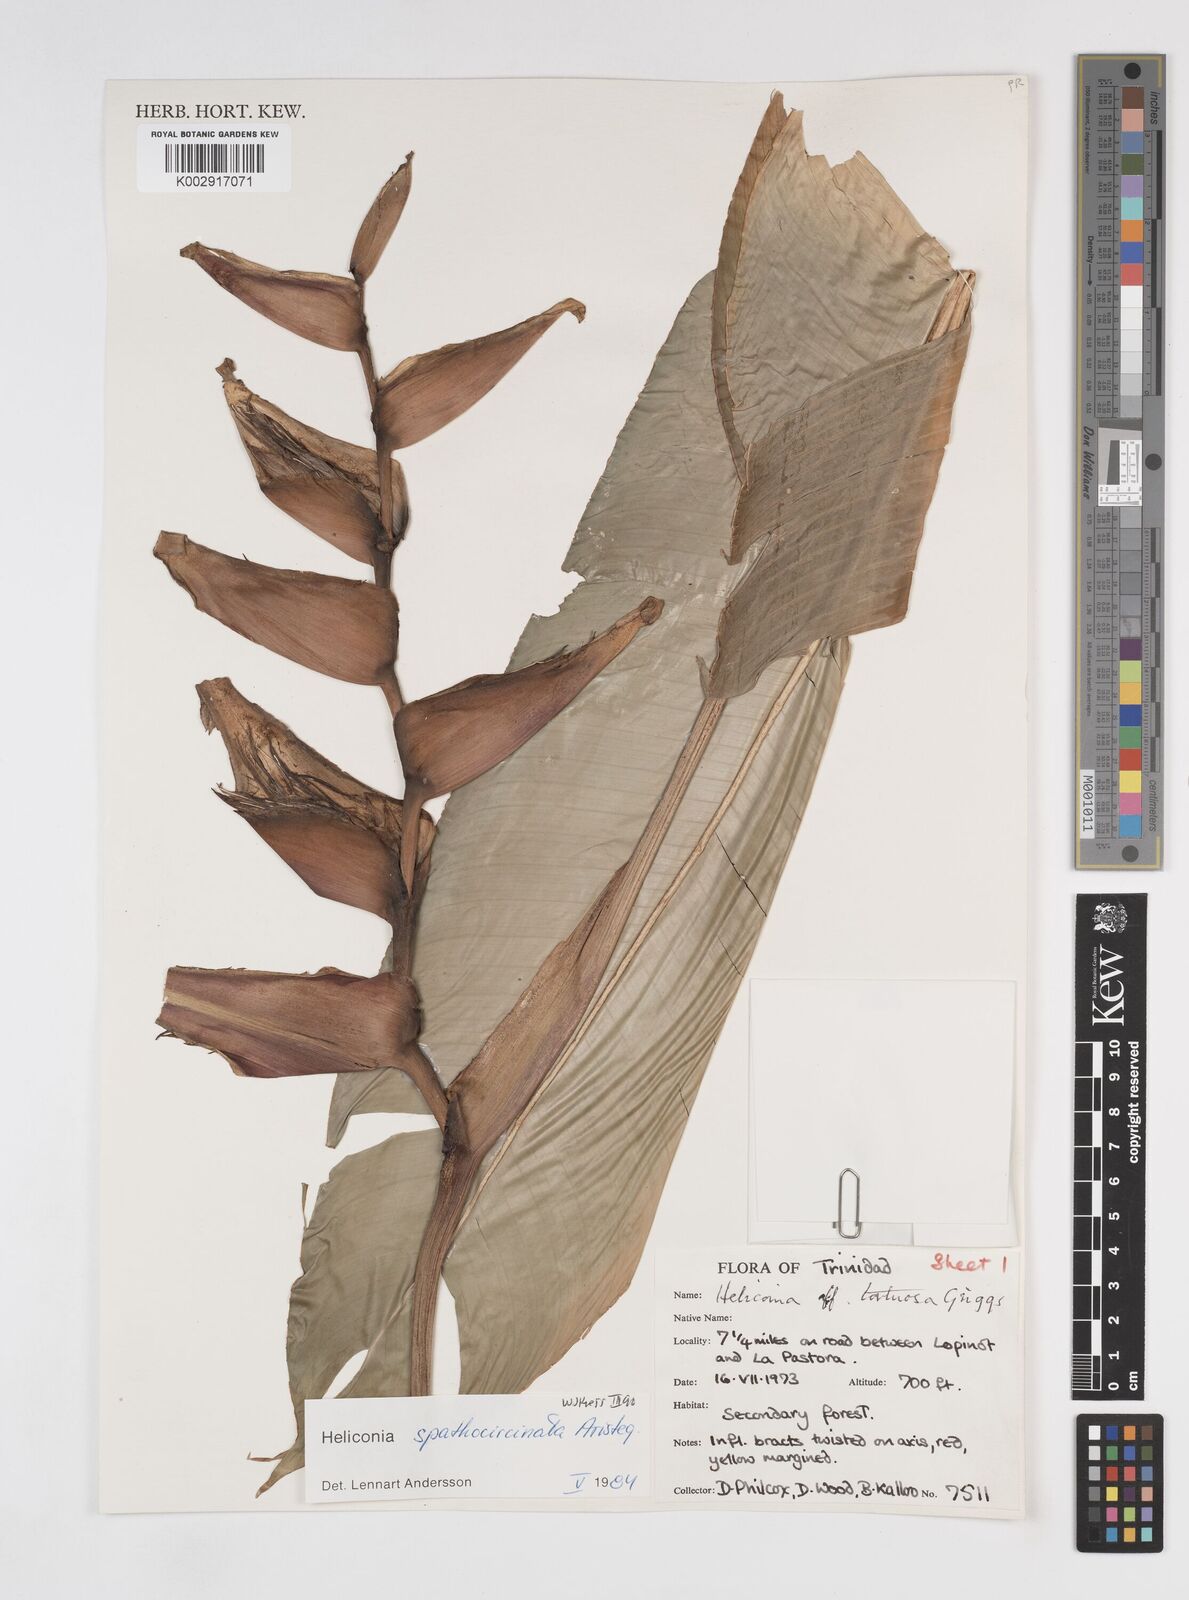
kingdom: Plantae
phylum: Tracheophyta
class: Liliopsida
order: Zingiberales
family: Heliconiaceae
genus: Heliconia
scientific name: Heliconia spathocircinata
